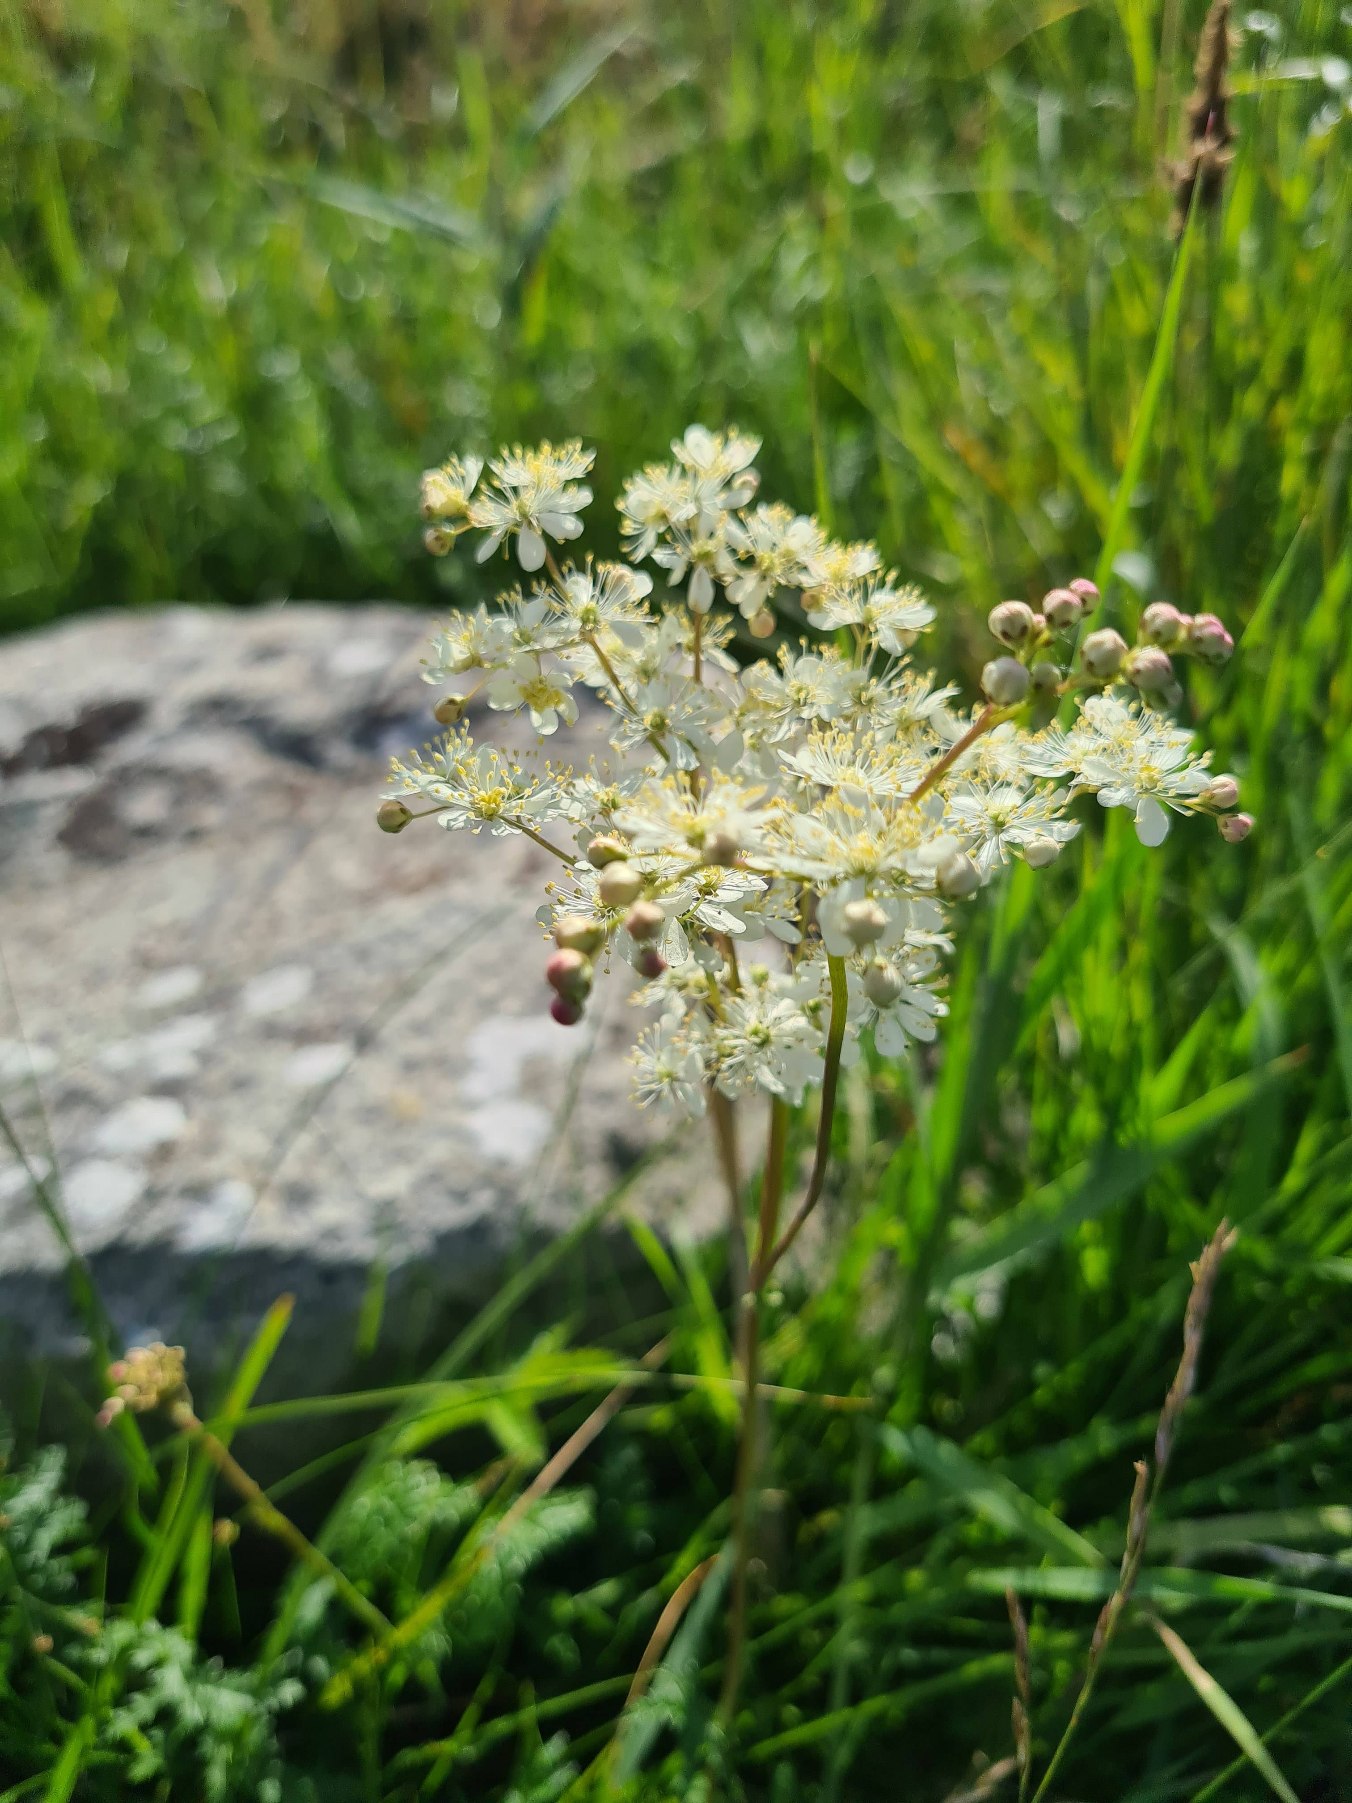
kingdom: Plantae
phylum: Tracheophyta
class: Magnoliopsida
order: Rosales
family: Rosaceae
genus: Filipendula
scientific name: Filipendula vulgaris
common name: Knoldet mjødurt
